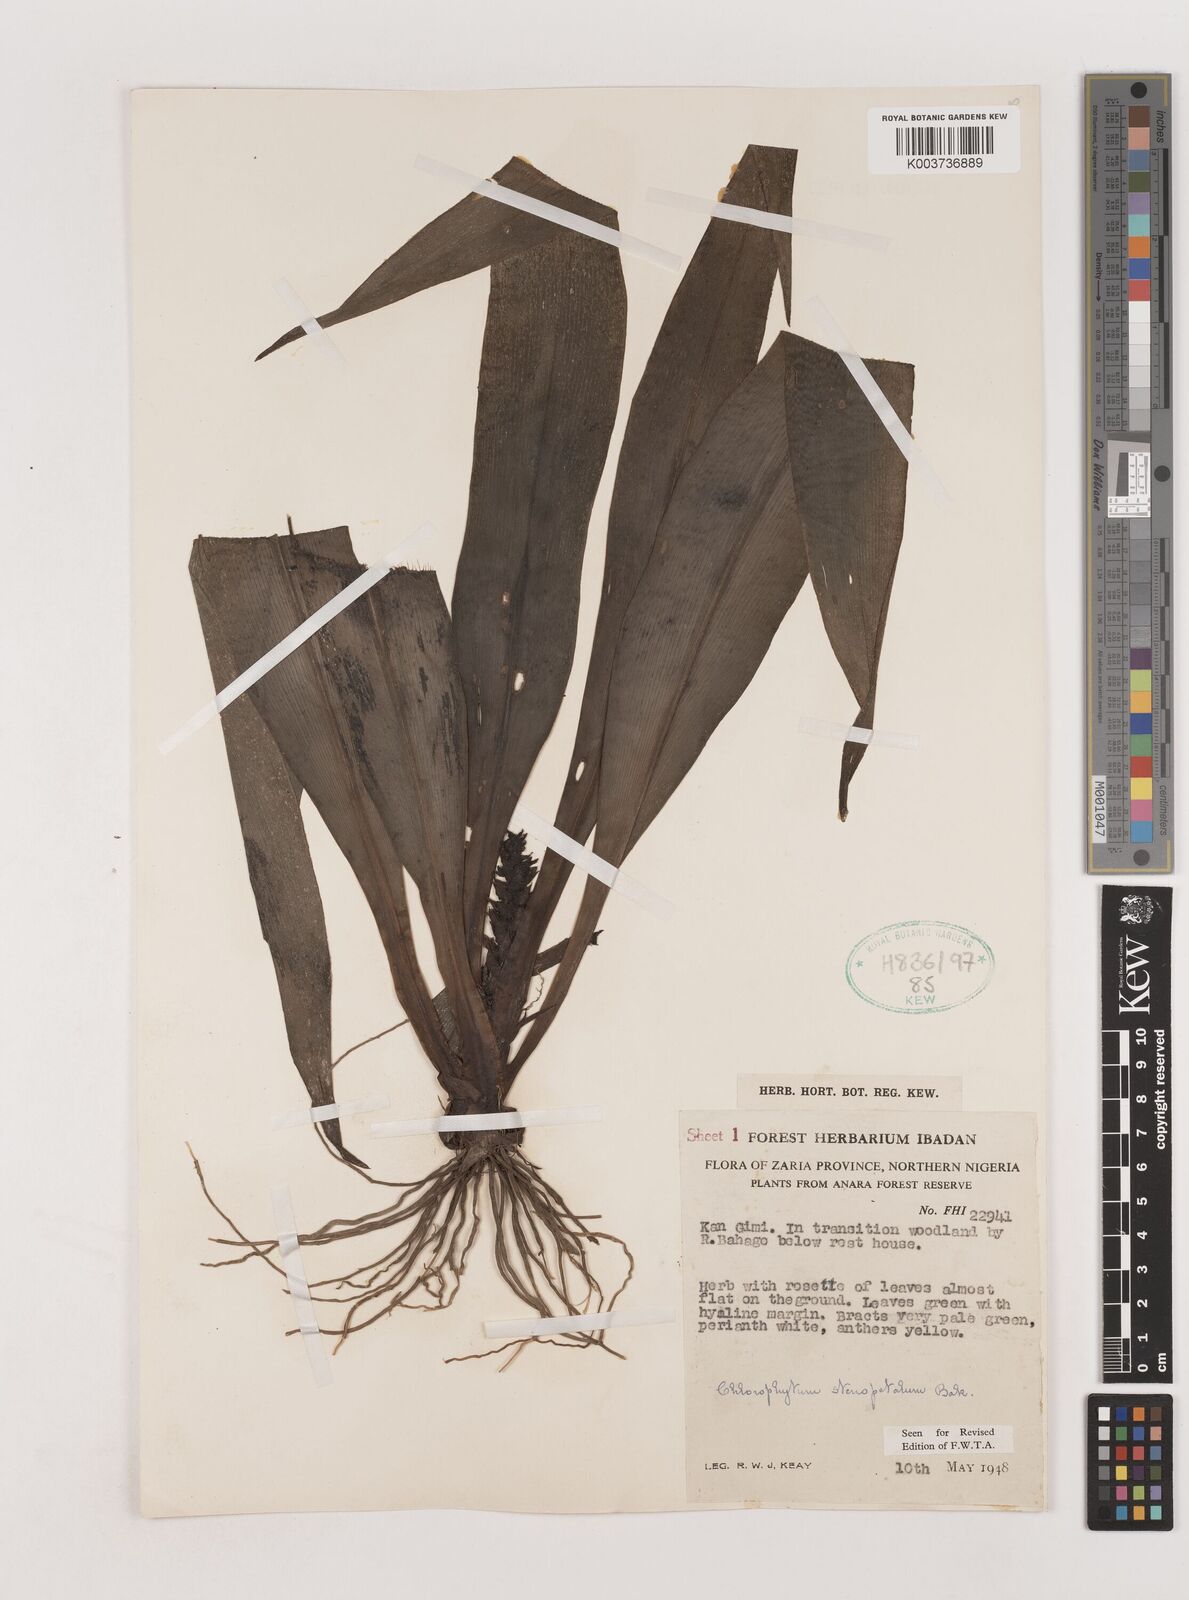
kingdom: Plantae
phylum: Tracheophyta
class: Liliopsida
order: Asparagales
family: Asparagaceae
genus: Chlorophytum
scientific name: Chlorophytum stenopetalum
